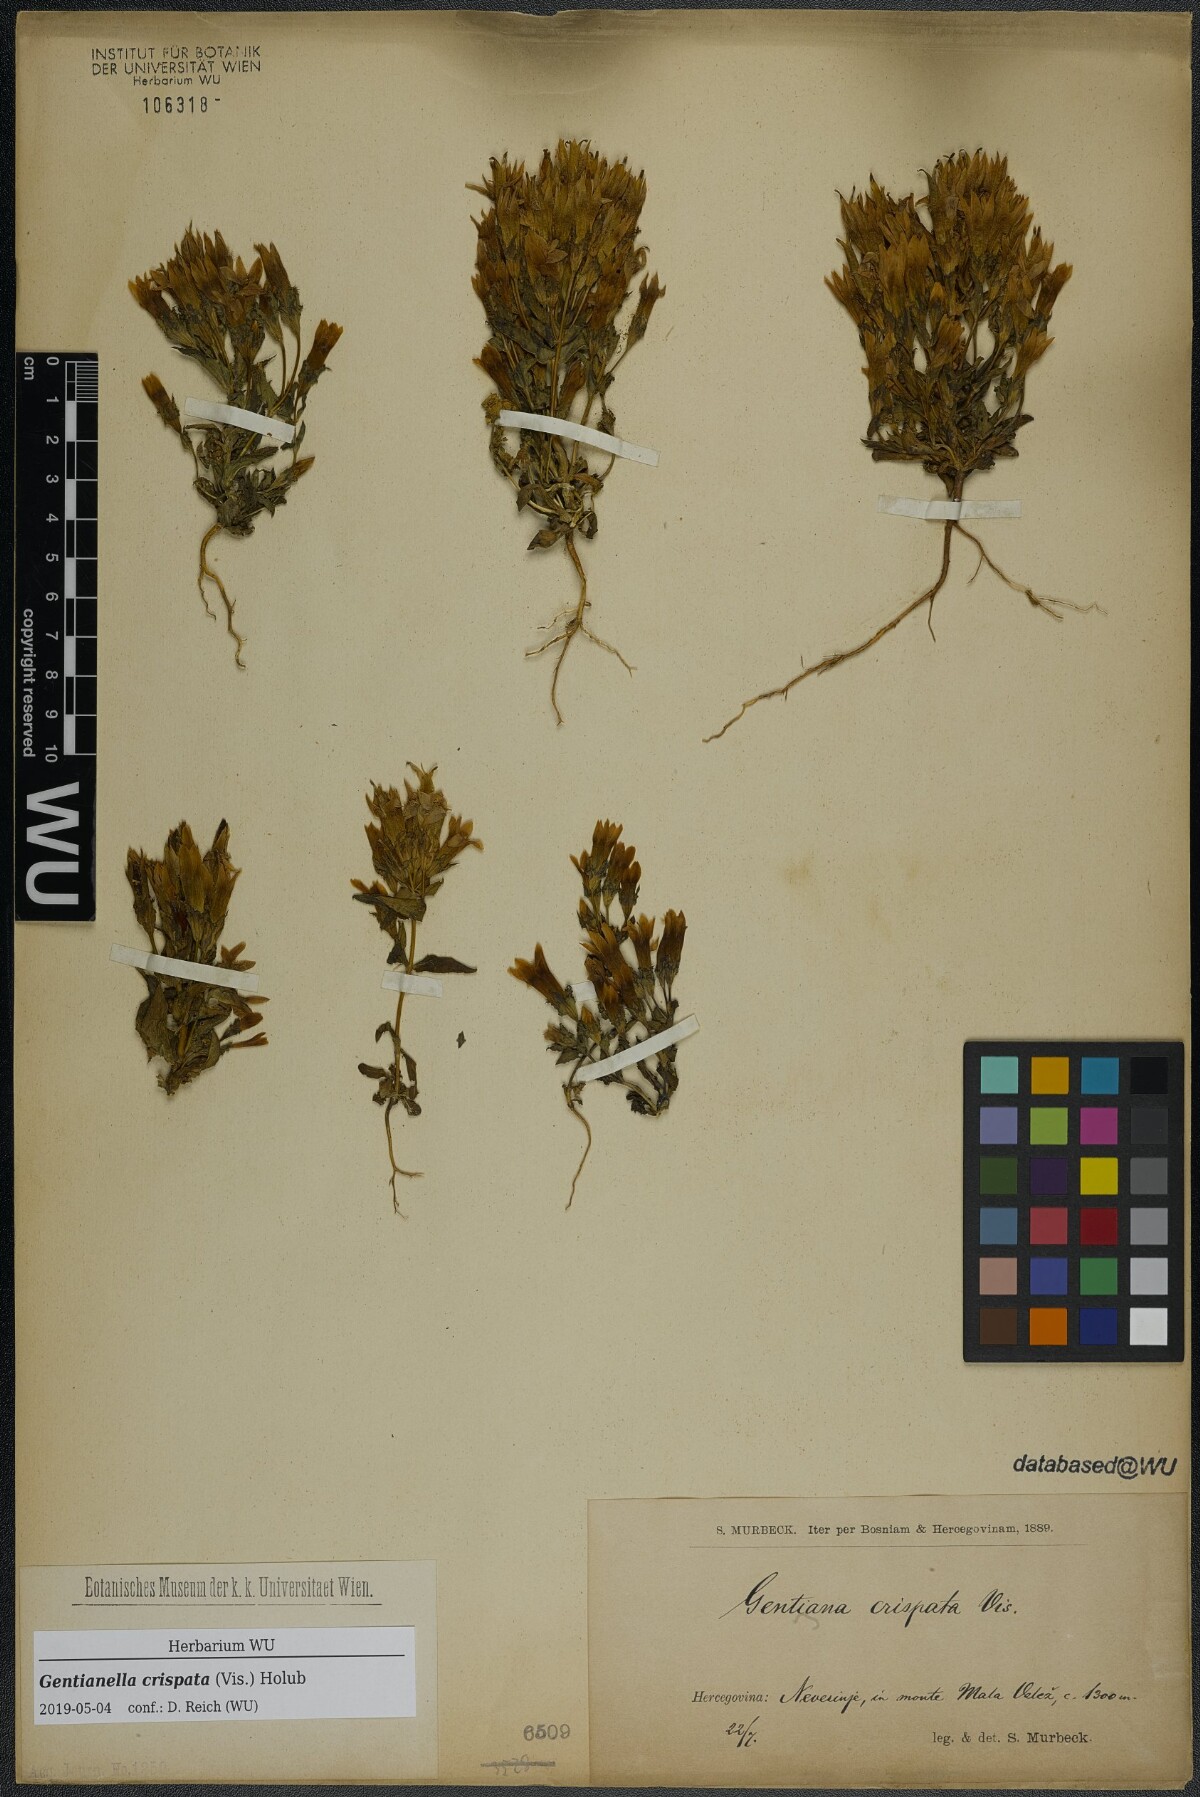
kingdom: Plantae
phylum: Tracheophyta
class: Magnoliopsida
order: Gentianales
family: Gentianaceae
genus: Gentianella
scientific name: Gentianella crispata
